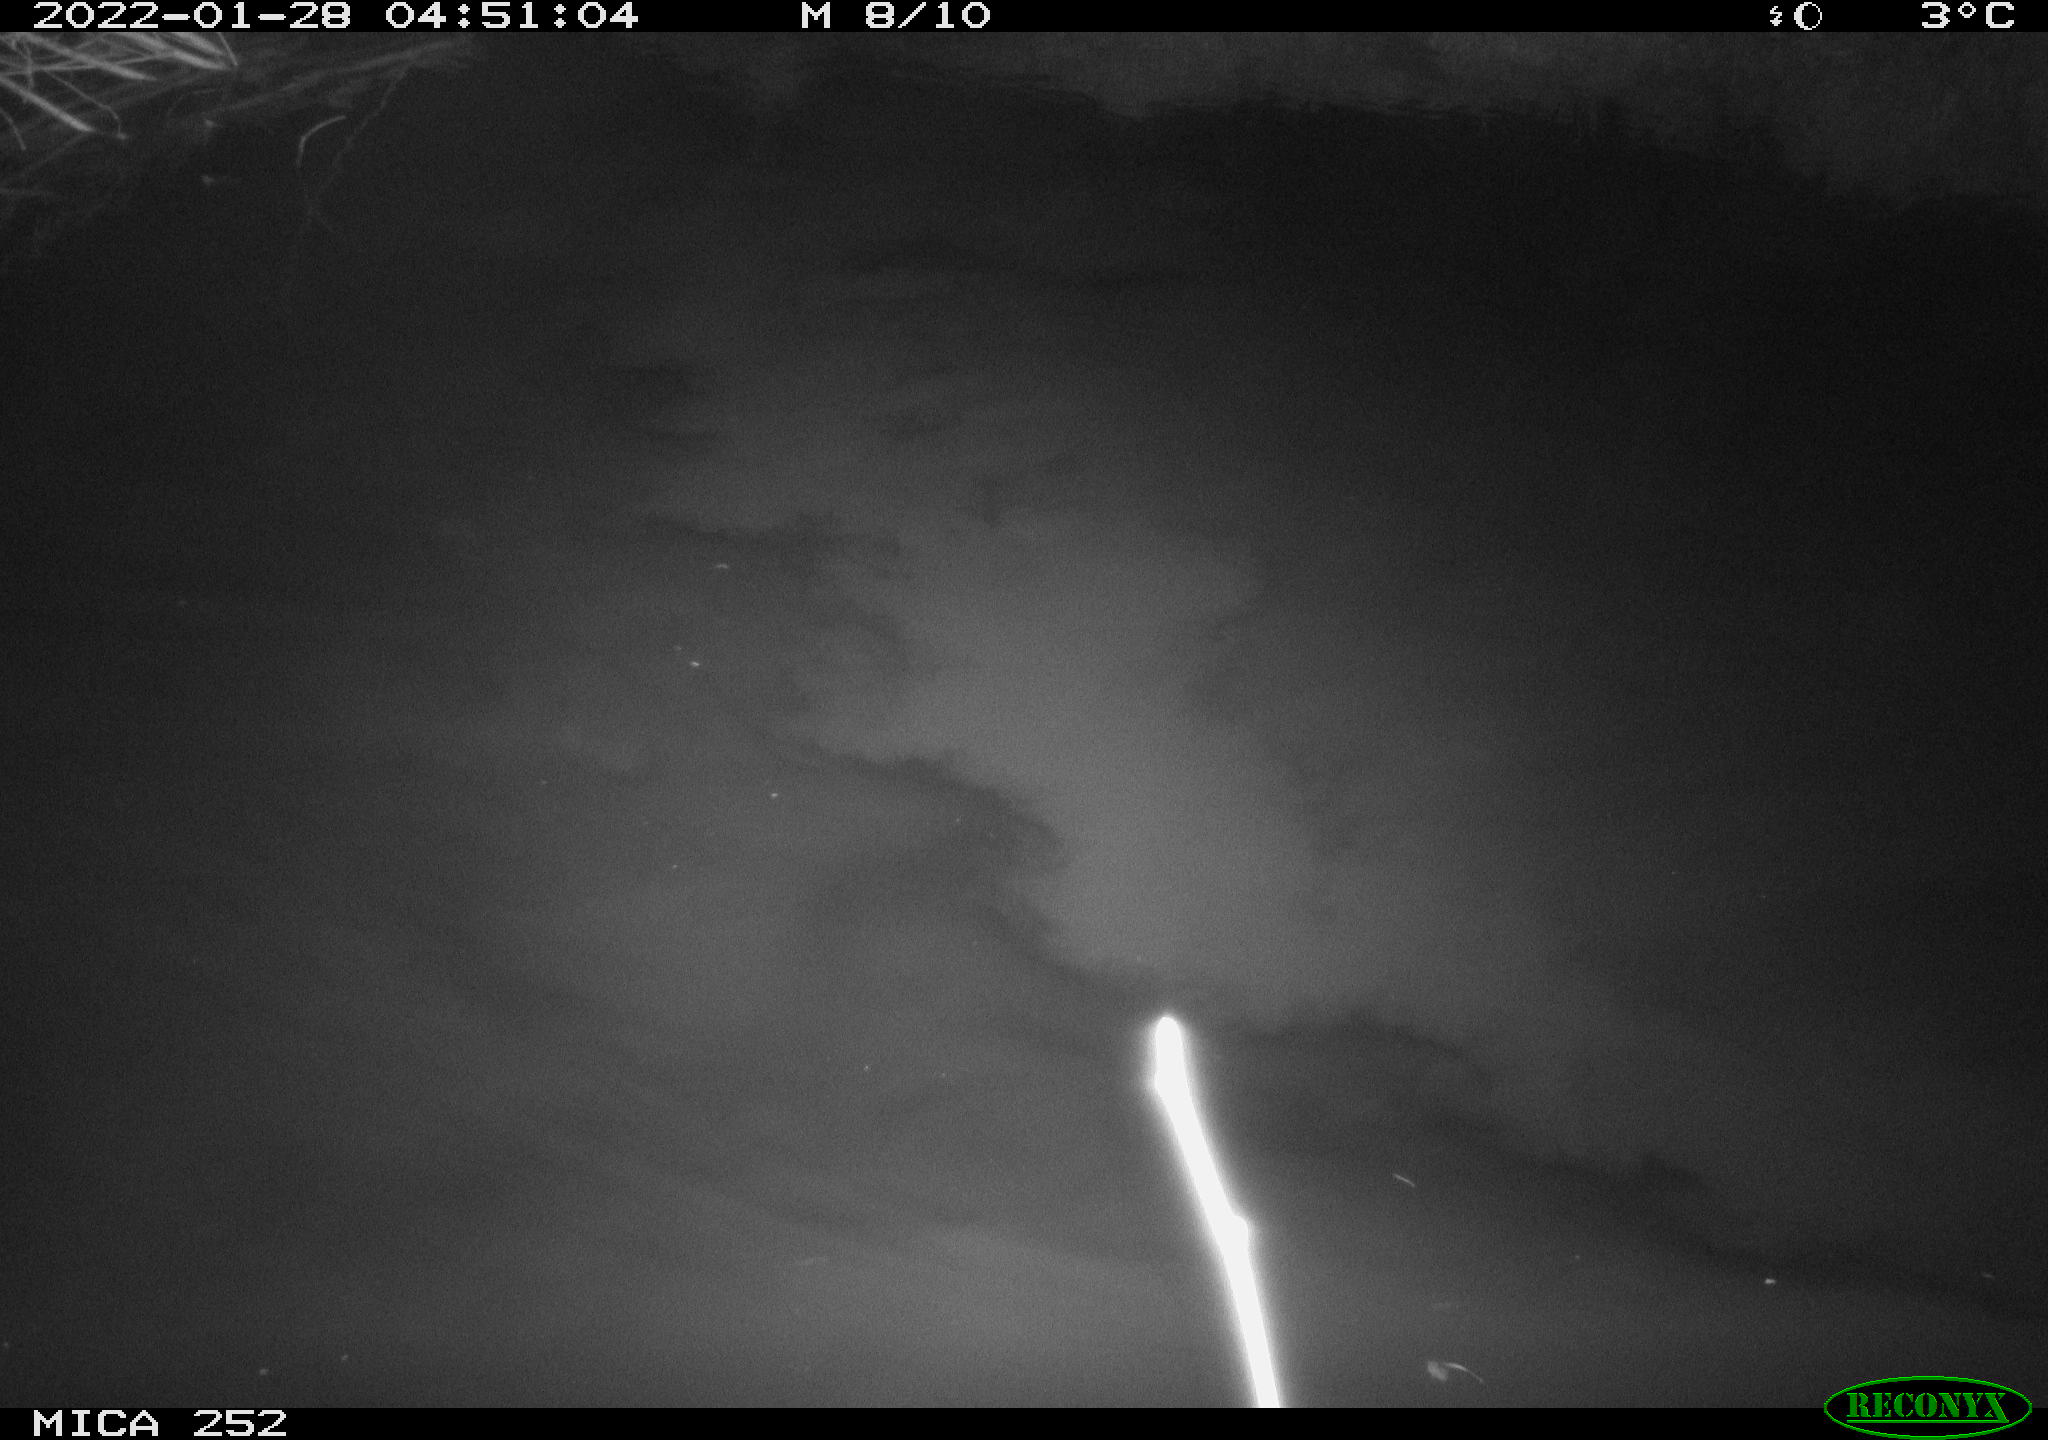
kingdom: Animalia
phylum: Chordata
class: Mammalia
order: Rodentia
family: Castoridae
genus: Castor
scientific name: Castor fiber
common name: Eurasian beaver
